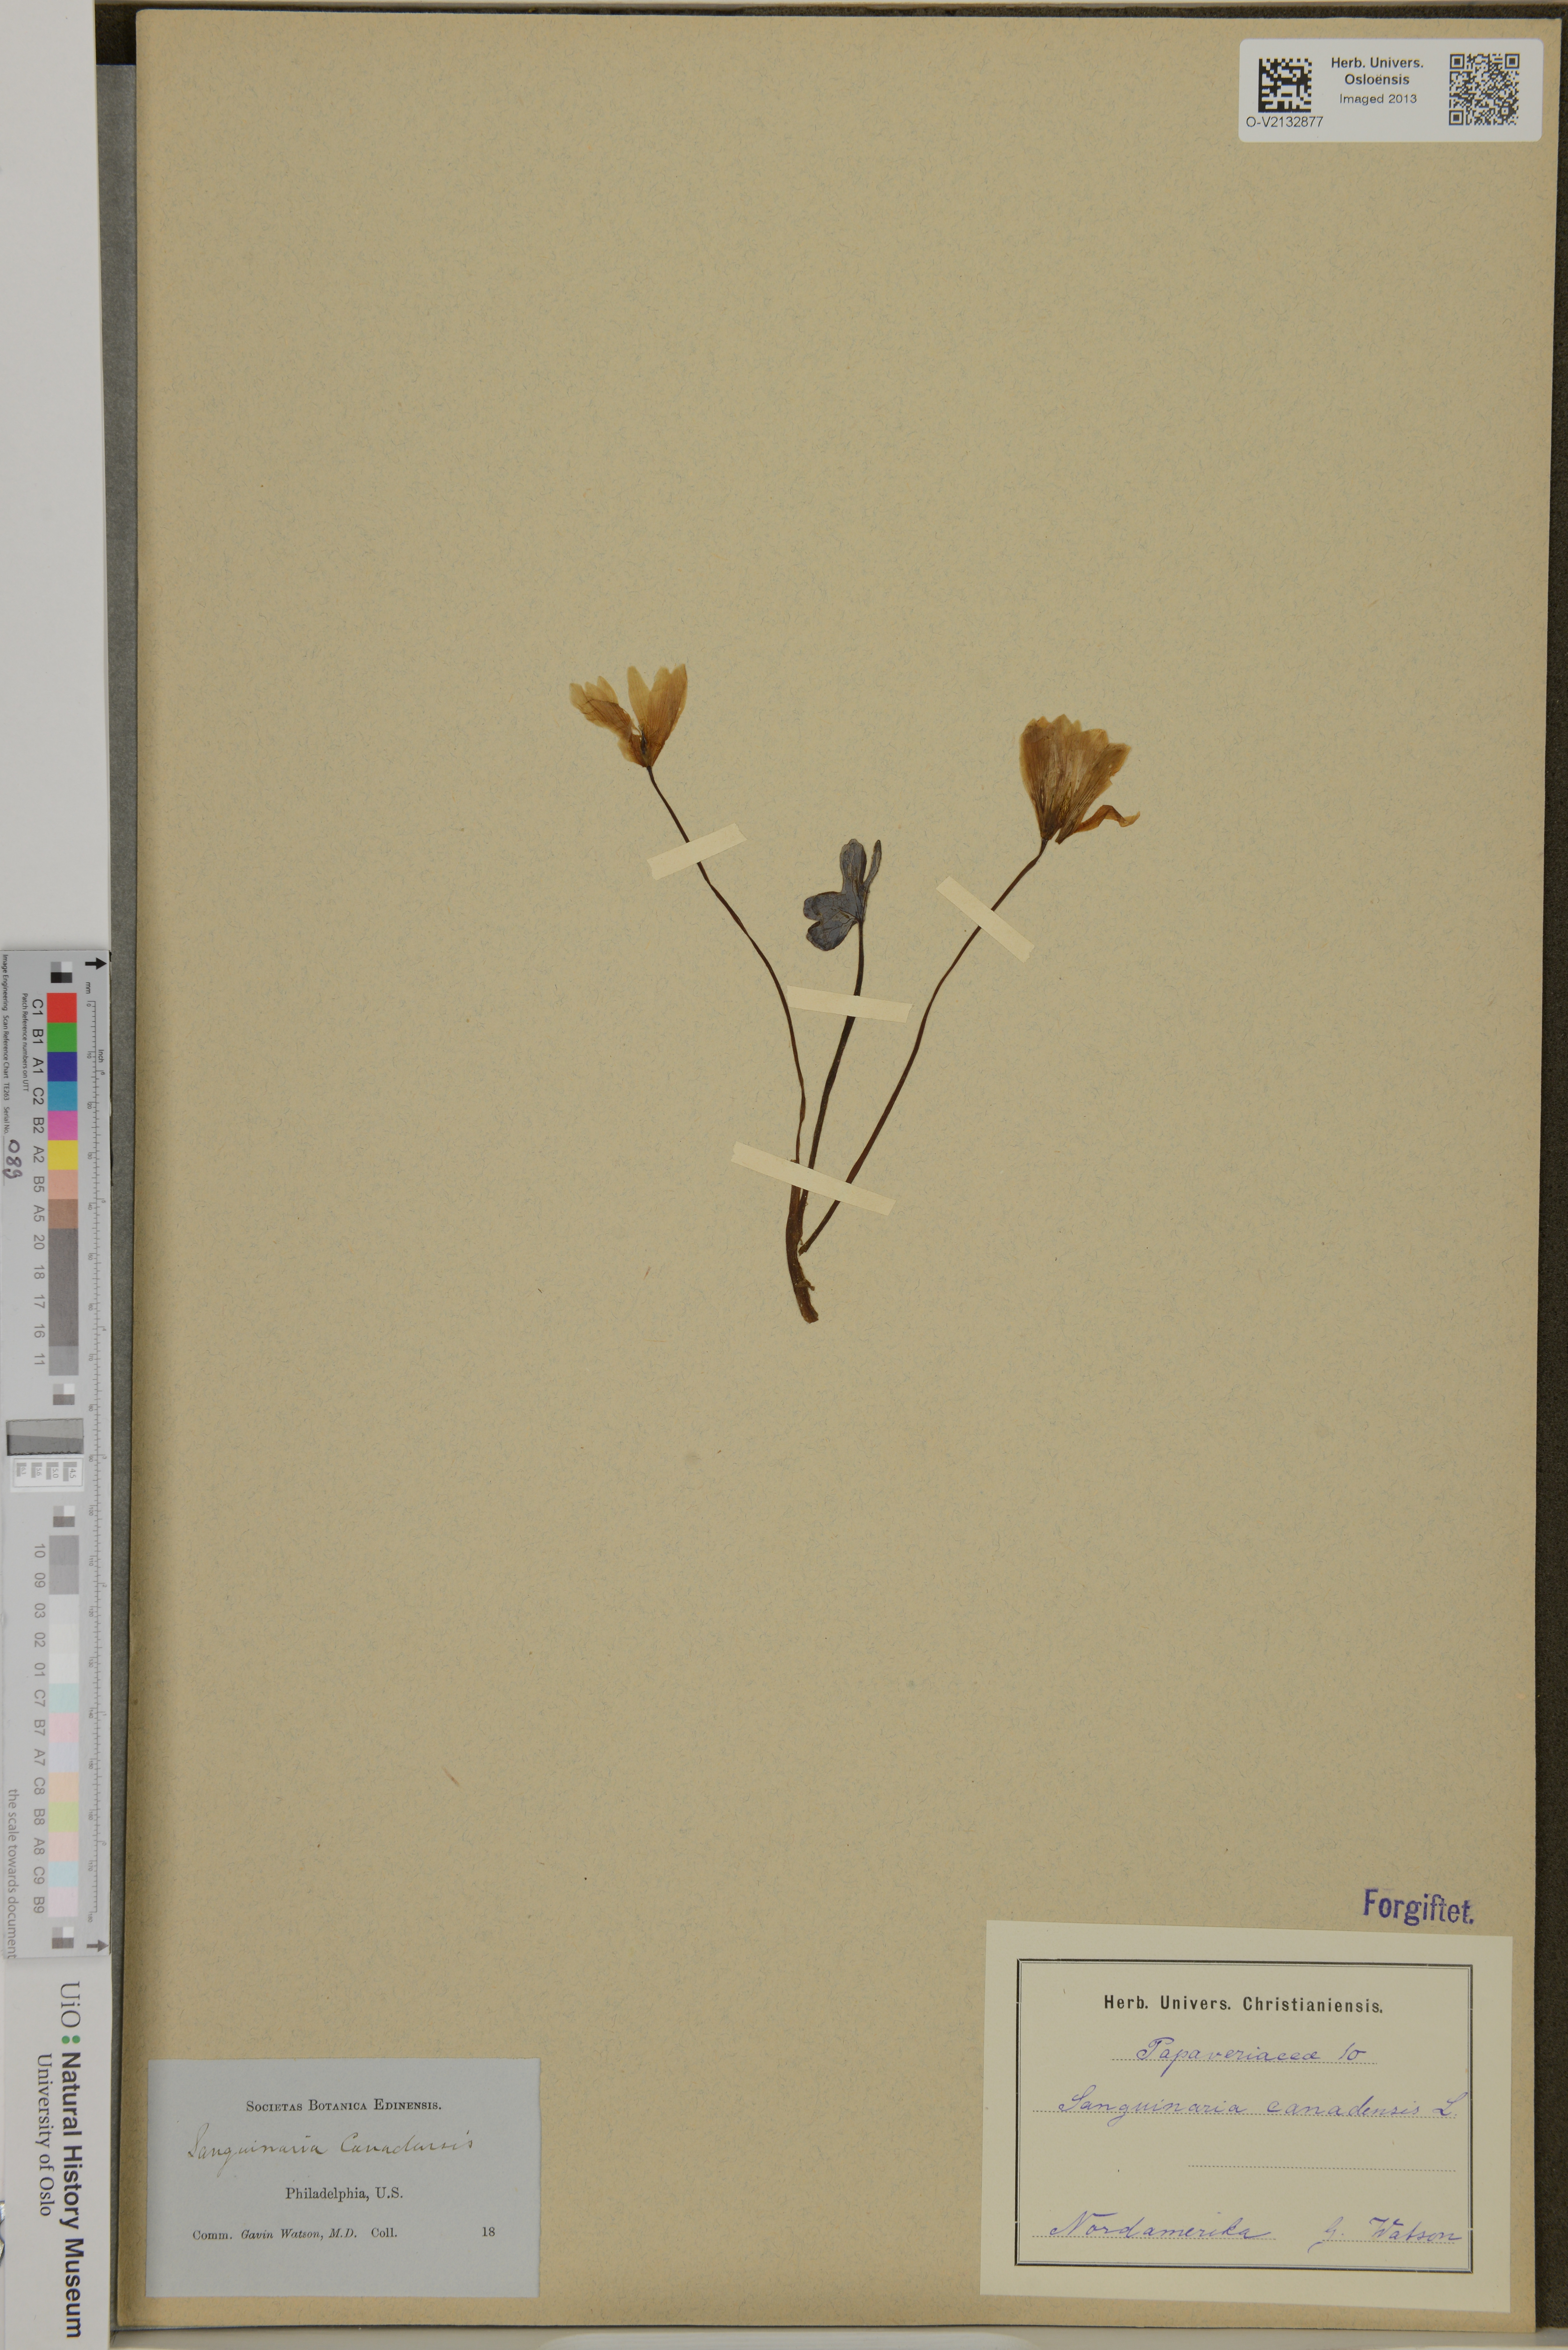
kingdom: Plantae
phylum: Tracheophyta
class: Magnoliopsida
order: Ranunculales
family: Papaveraceae
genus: Sanguinaria
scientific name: Sanguinaria canadensis
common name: Bloodroot
